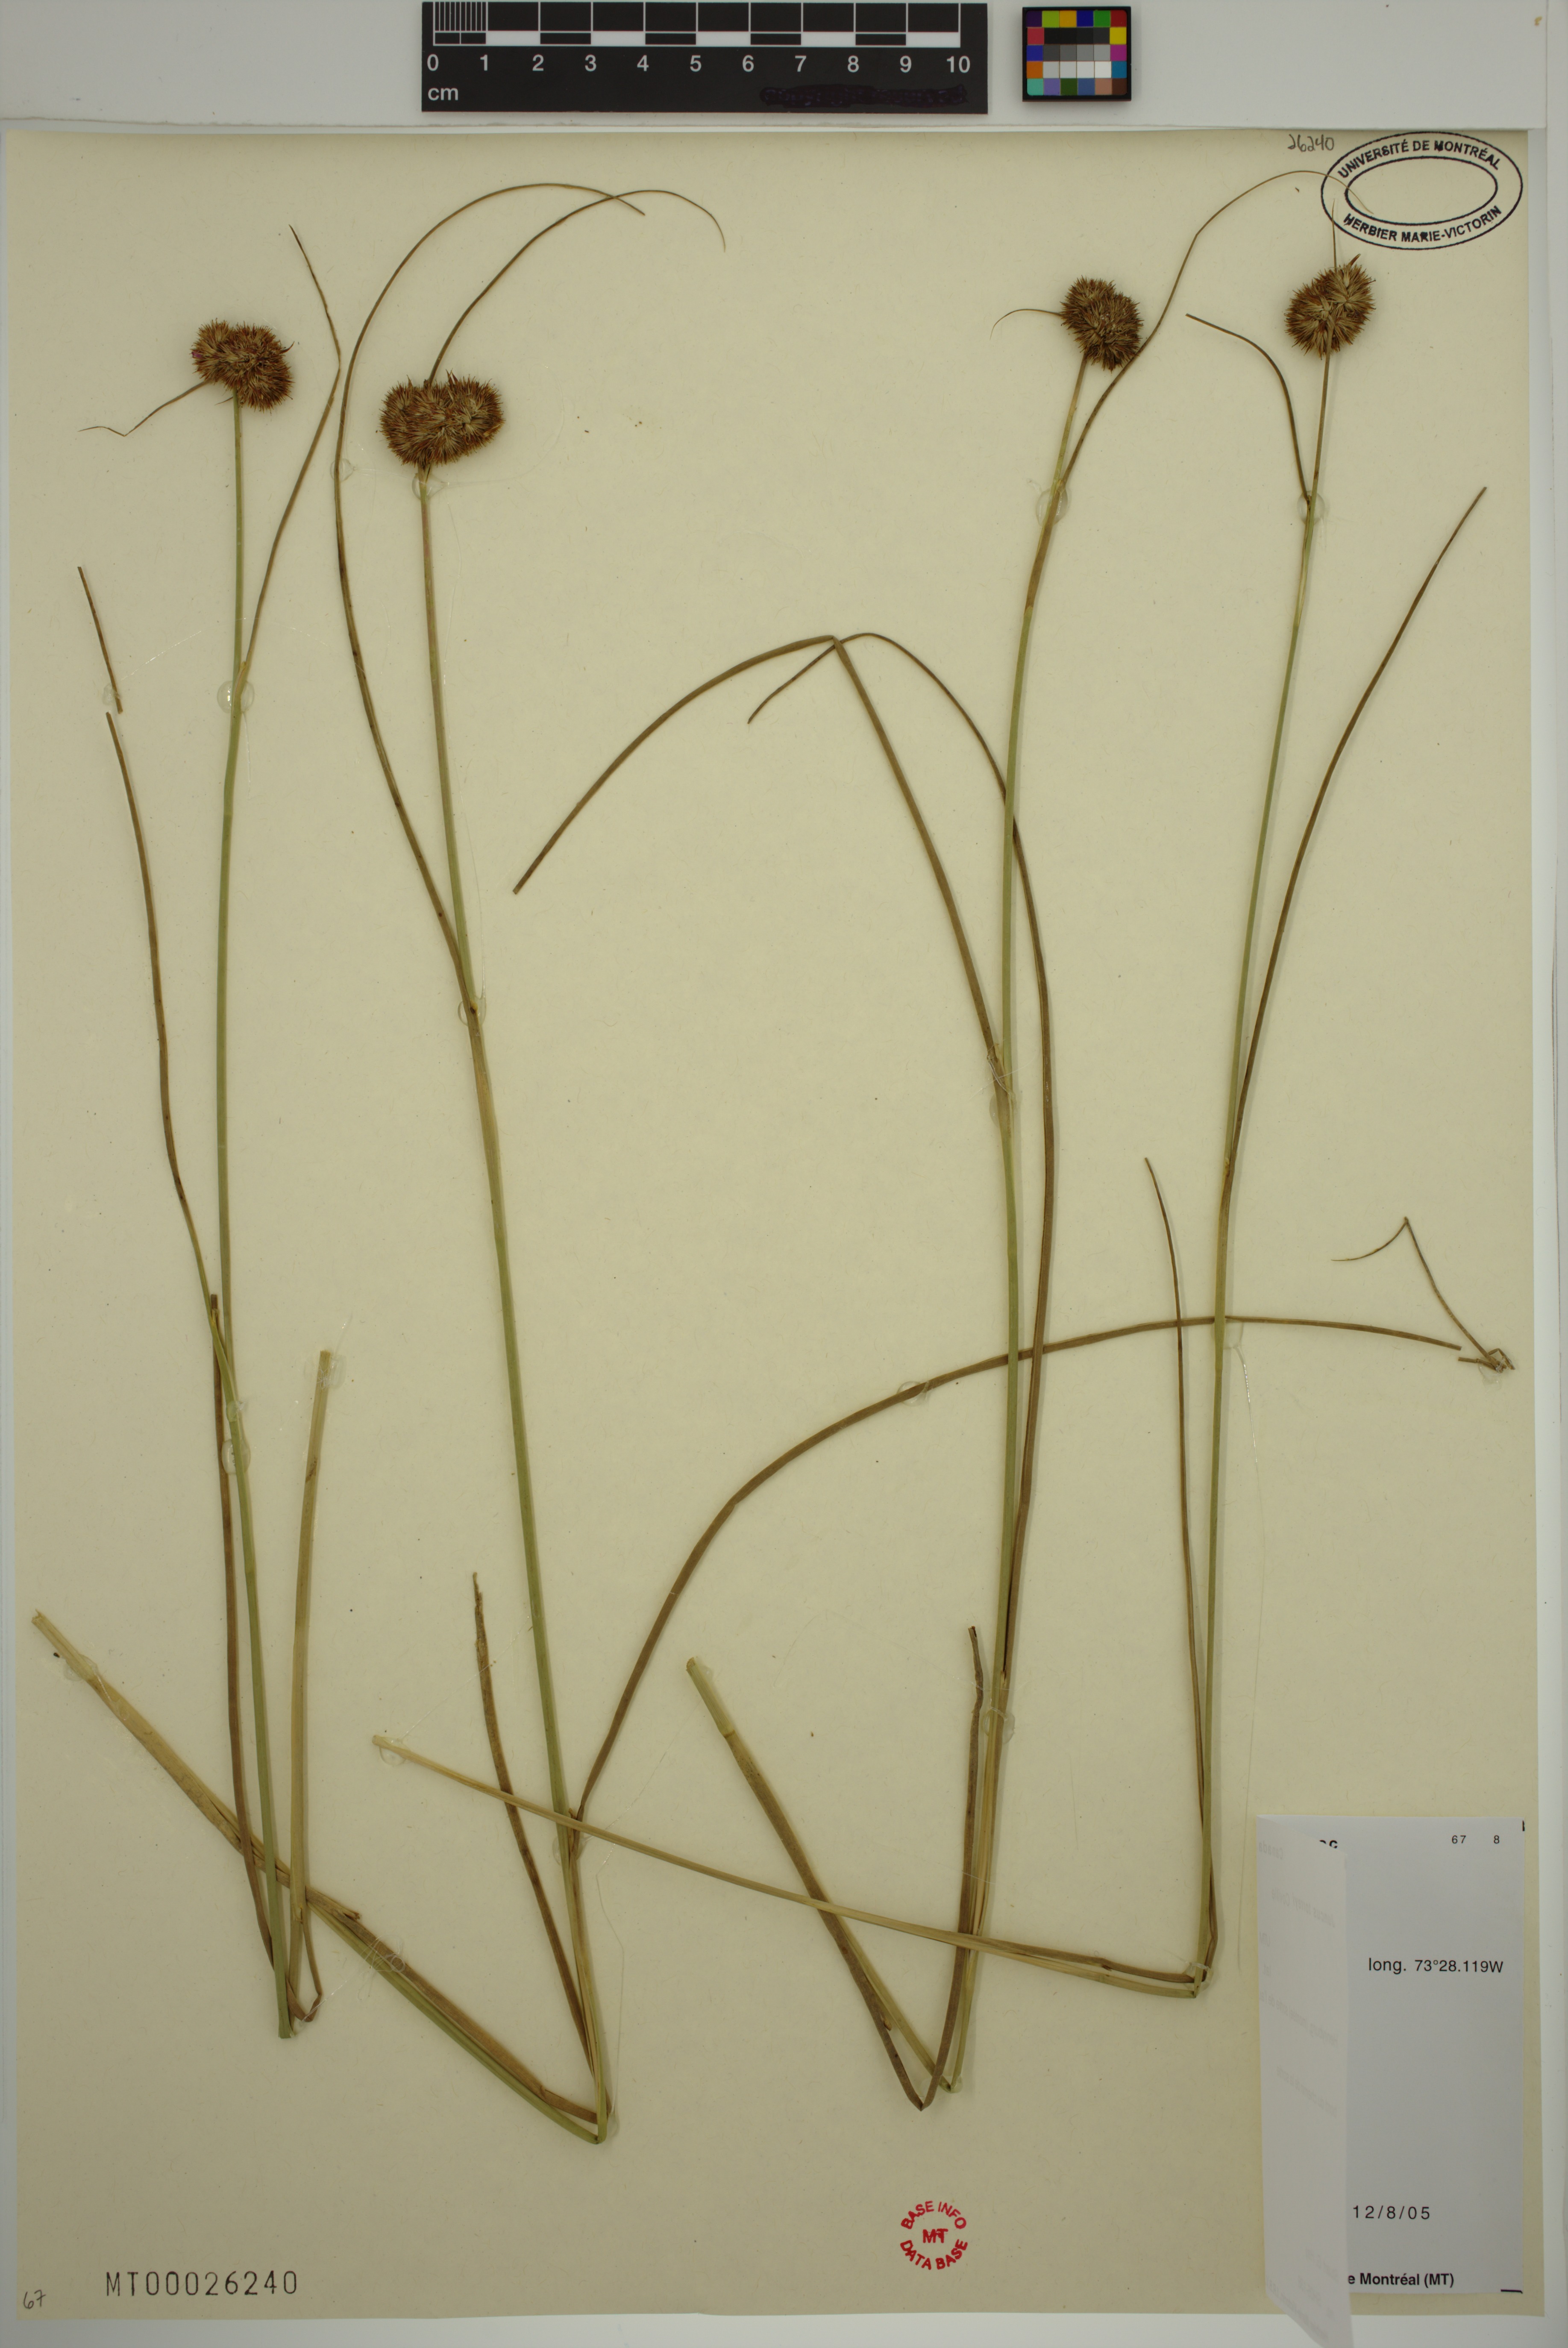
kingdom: Plantae
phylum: Tracheophyta
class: Liliopsida
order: Poales
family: Juncaceae
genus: Juncus
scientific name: Juncus torreyi
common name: Torrey's rush
